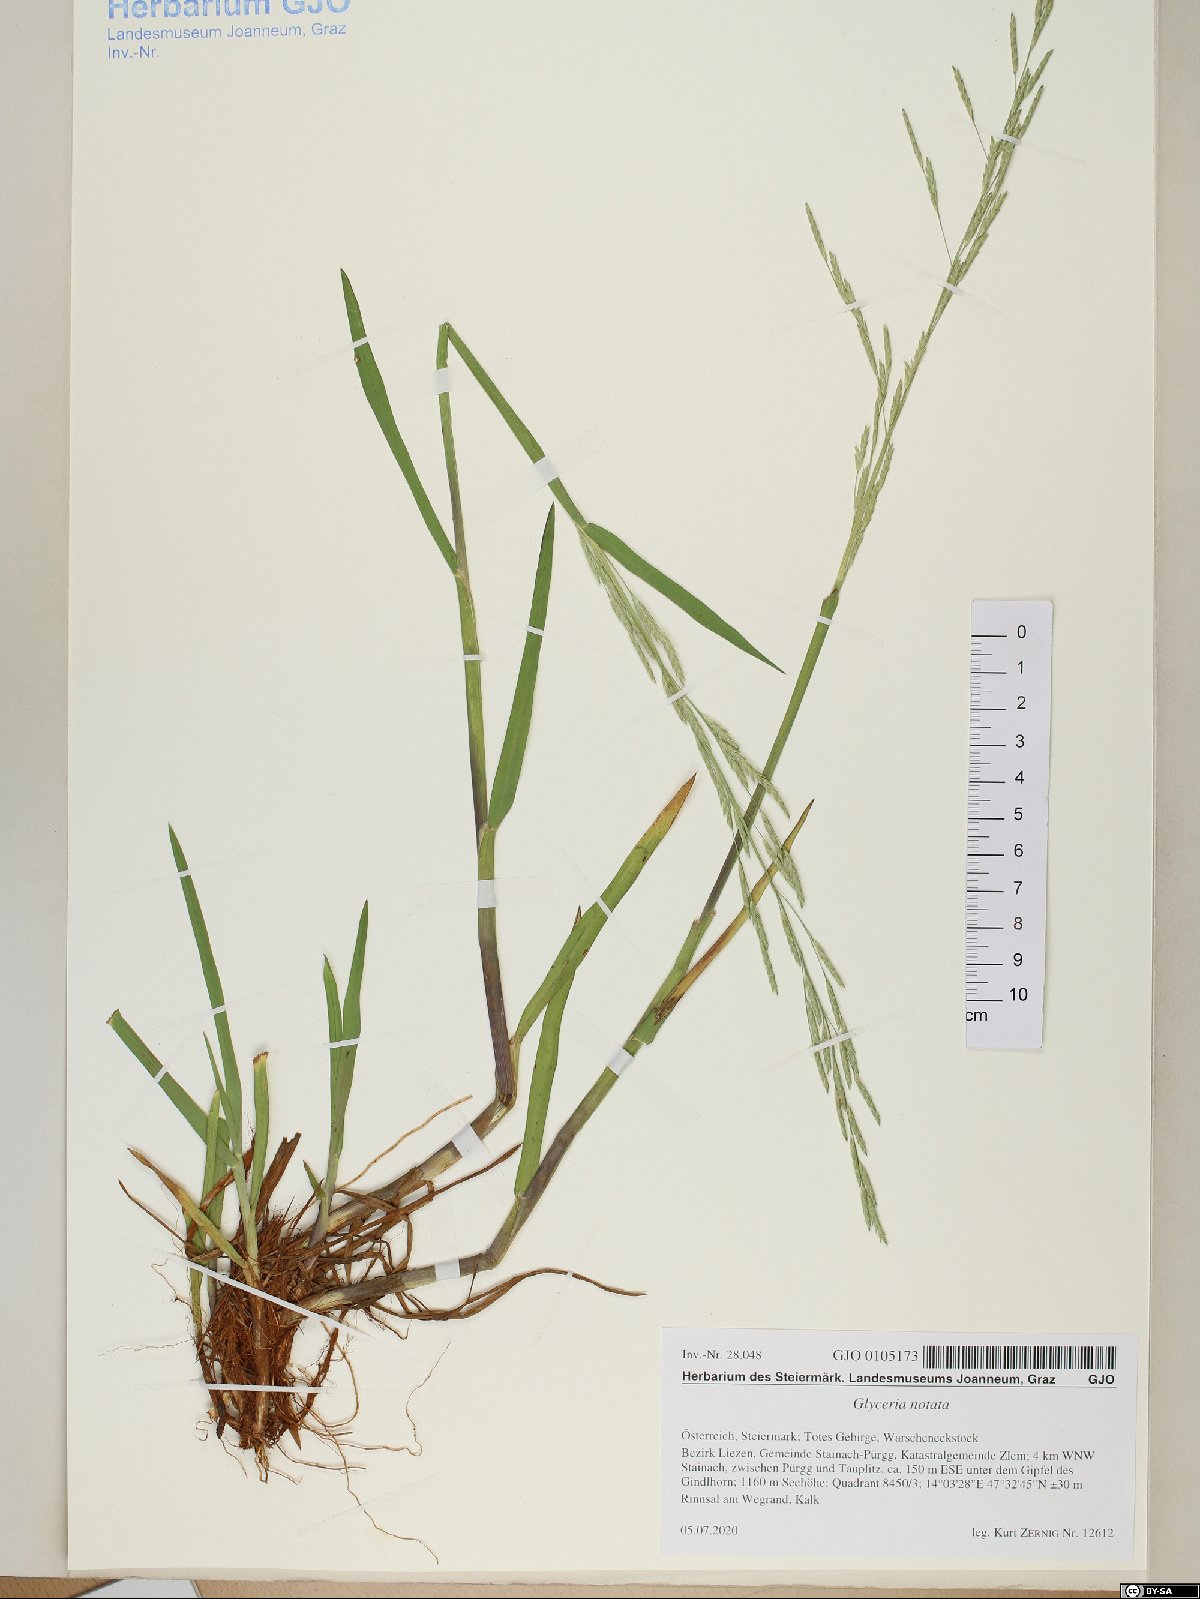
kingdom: Plantae
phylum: Tracheophyta
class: Liliopsida
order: Poales
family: Poaceae
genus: Glyceria
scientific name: Glyceria notata
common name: Plicate sweet-grass
